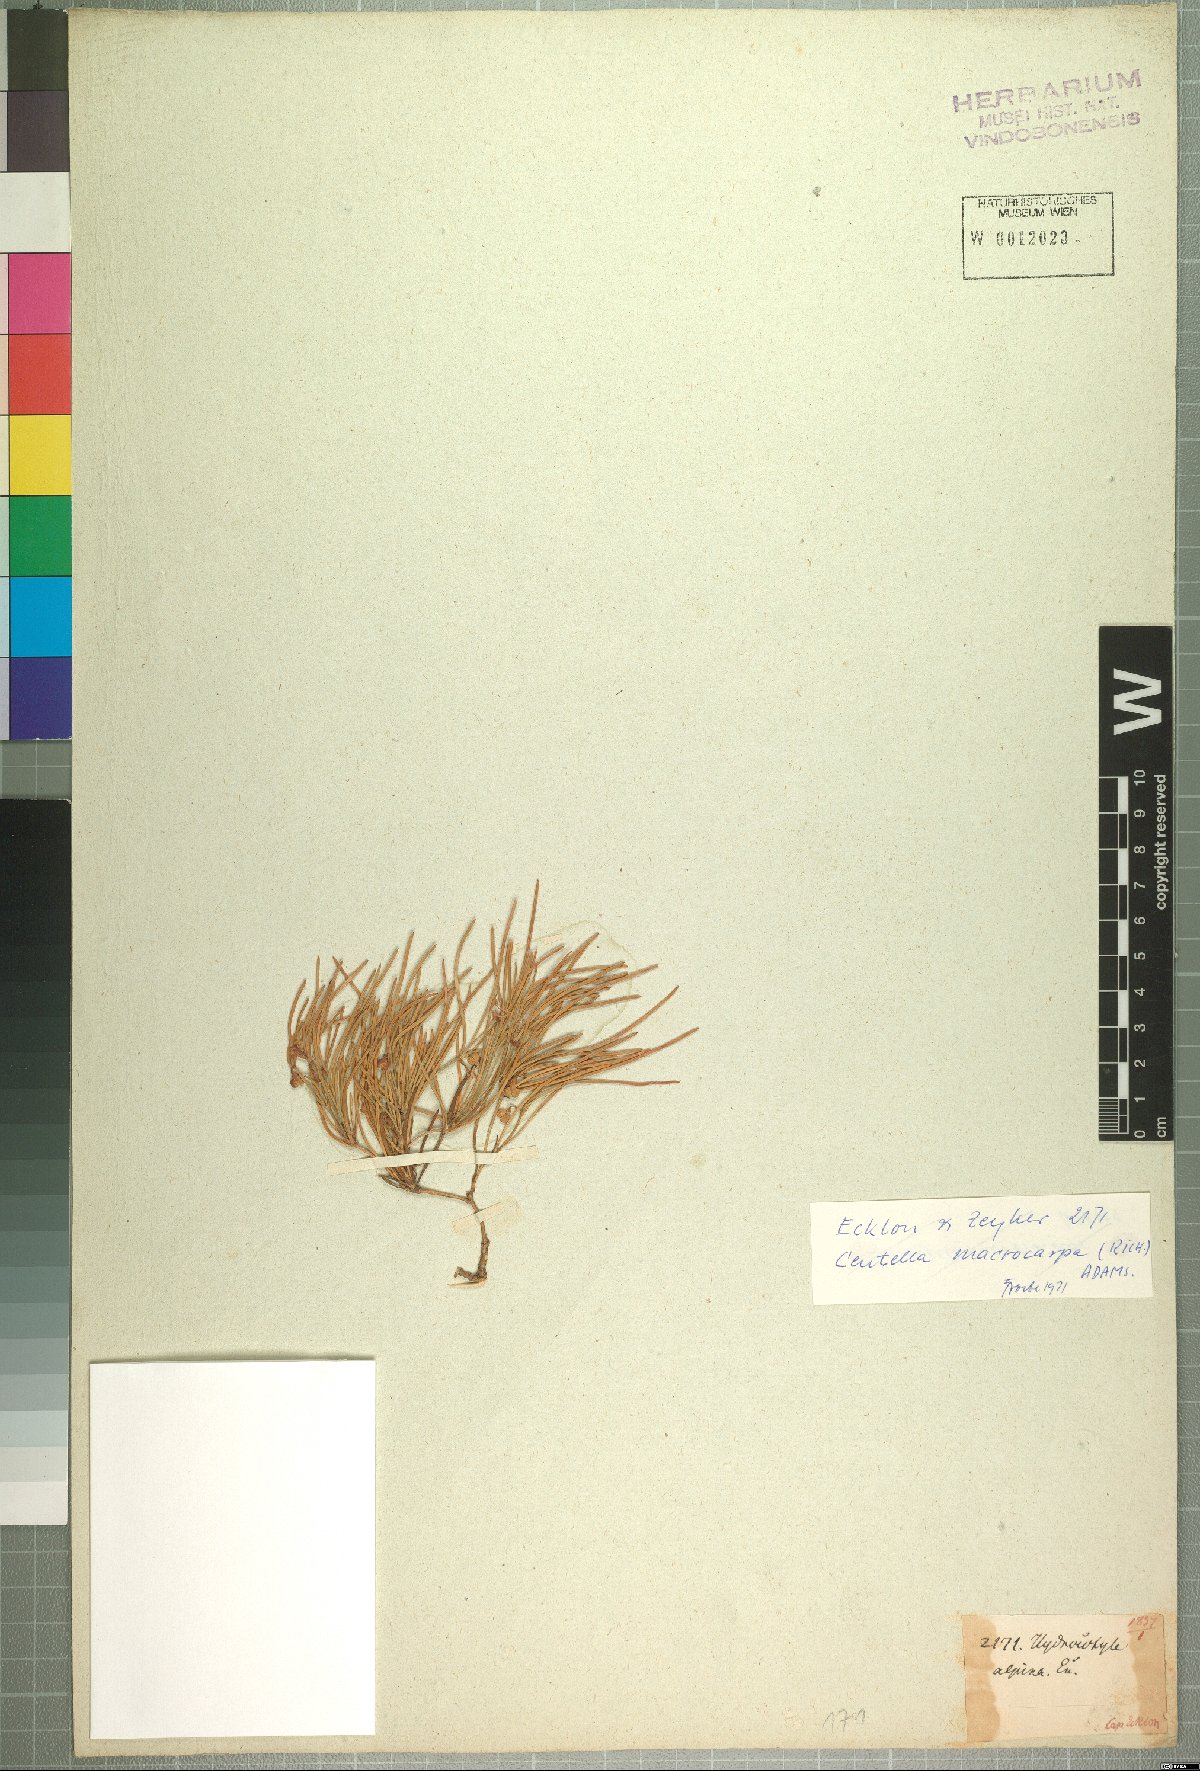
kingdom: Plantae
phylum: Tracheophyta
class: Magnoliopsida
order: Apiales
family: Apiaceae
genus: Centella
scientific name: Centella macrocarpa
